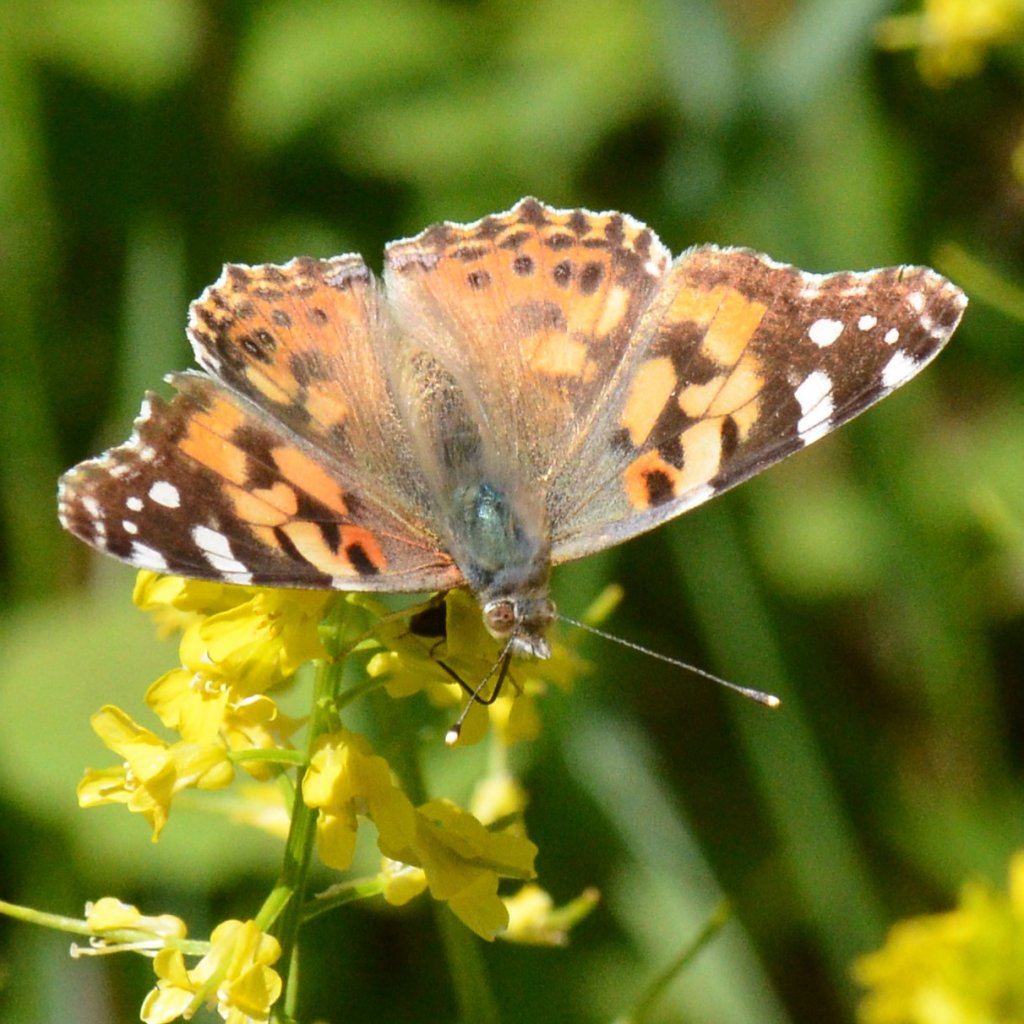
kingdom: Animalia
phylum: Arthropoda
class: Insecta
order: Lepidoptera
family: Nymphalidae
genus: Vanessa
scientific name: Vanessa cardui
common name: Painted Lady
